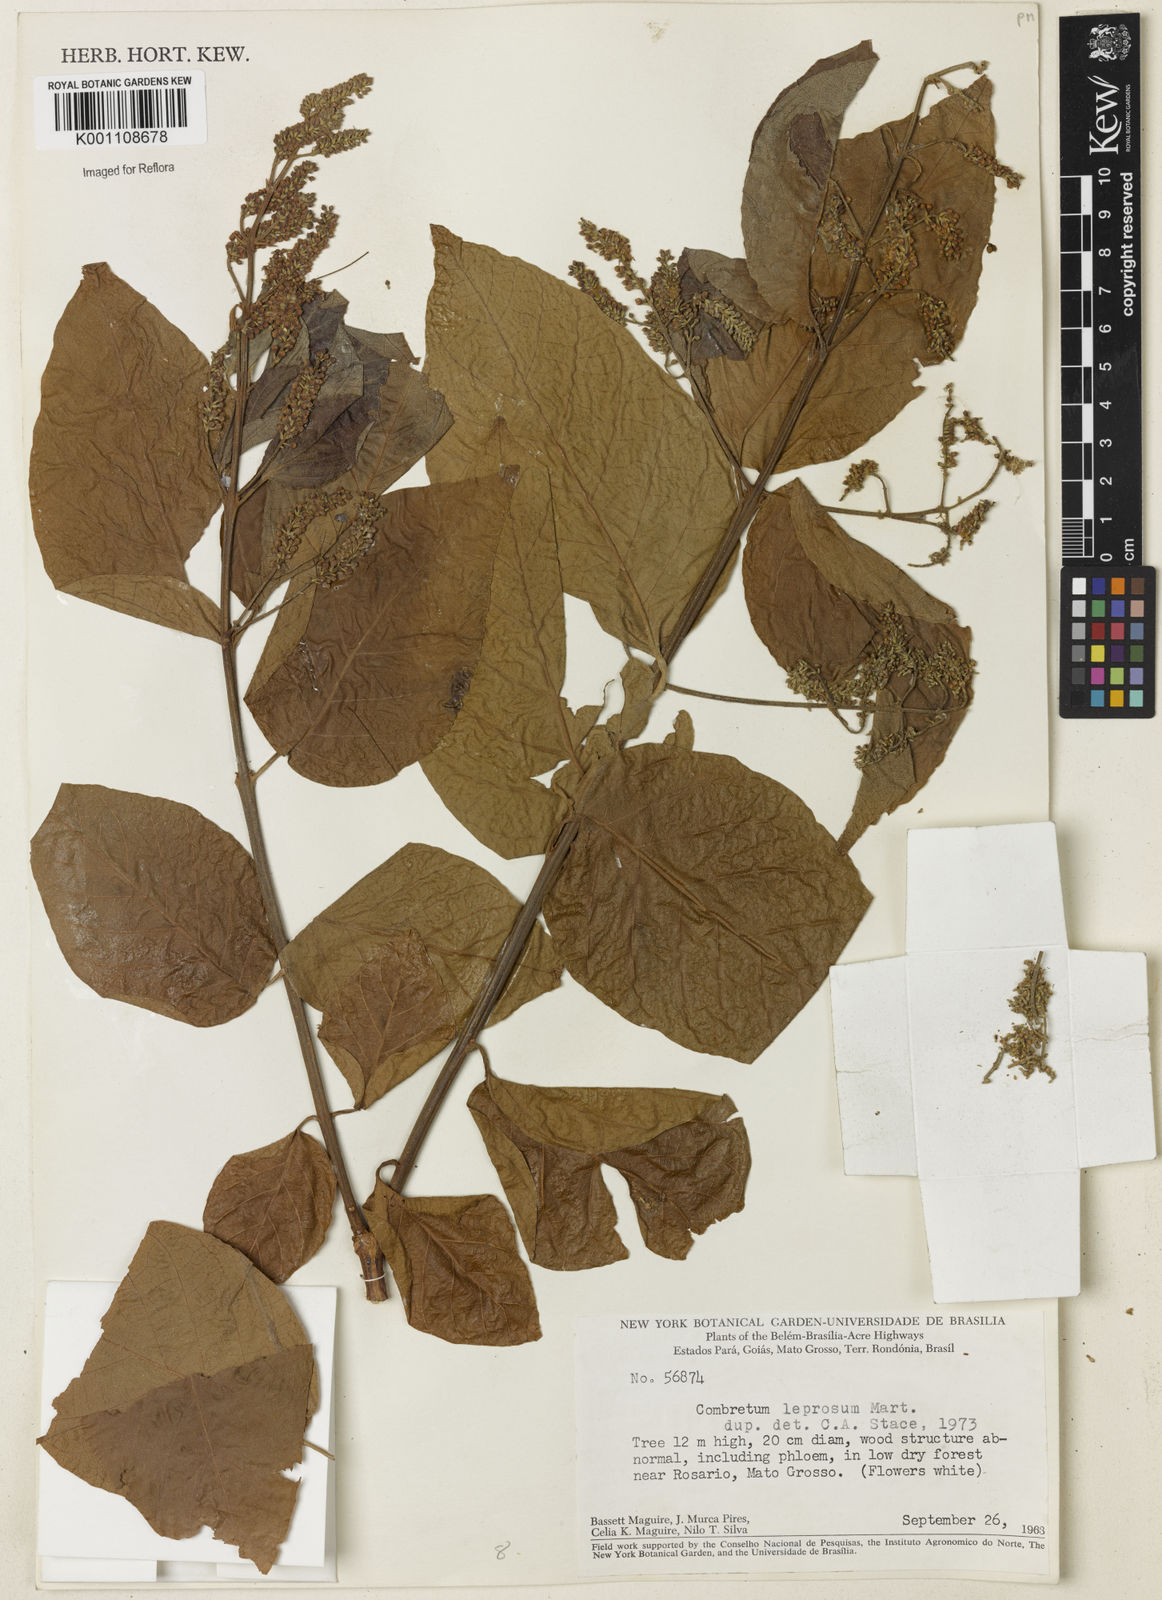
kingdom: Plantae
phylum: Tracheophyta
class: Magnoliopsida
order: Myrtales
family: Combretaceae
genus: Combretum
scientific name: Combretum leprosum
